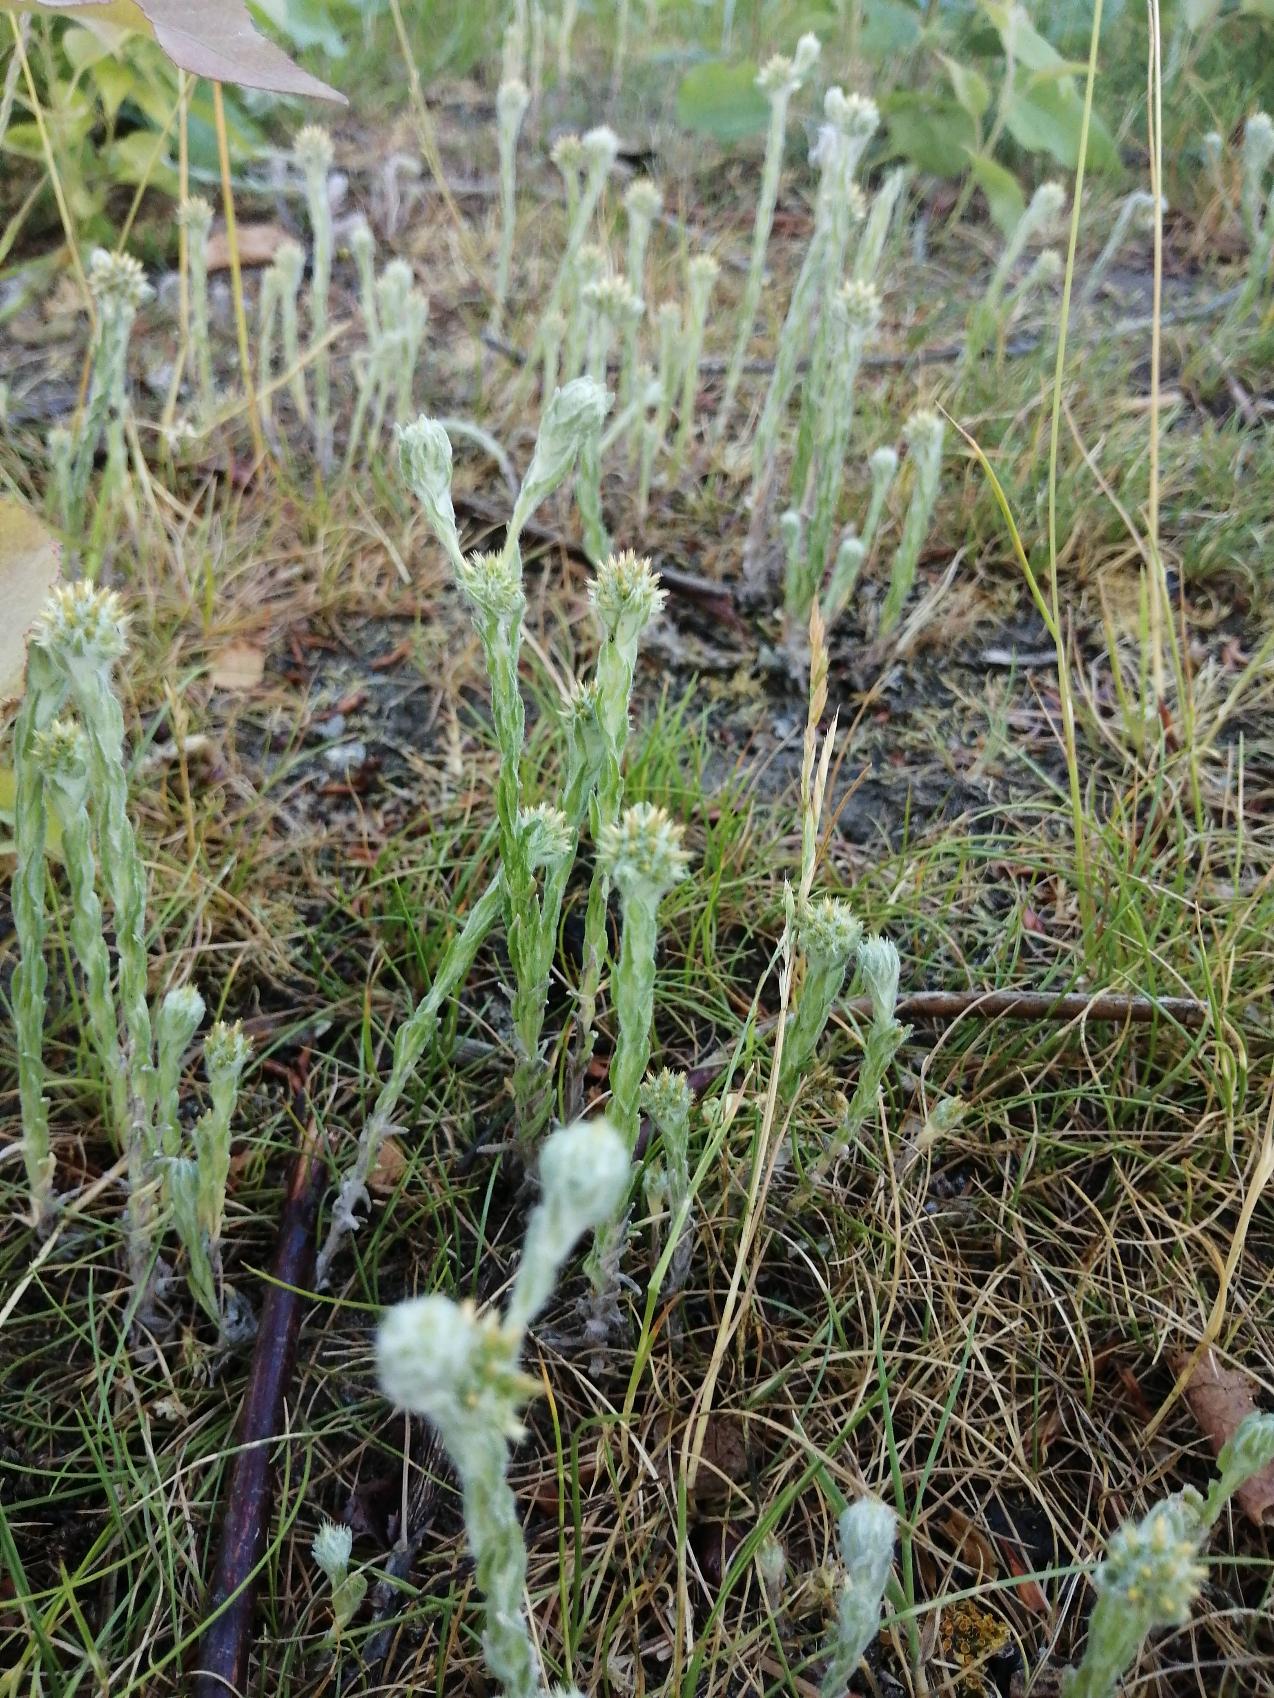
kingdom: Plantae
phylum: Tracheophyta
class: Magnoliopsida
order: Asterales
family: Asteraceae
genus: Filago
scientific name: Filago germanica
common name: Kugle-museurt
